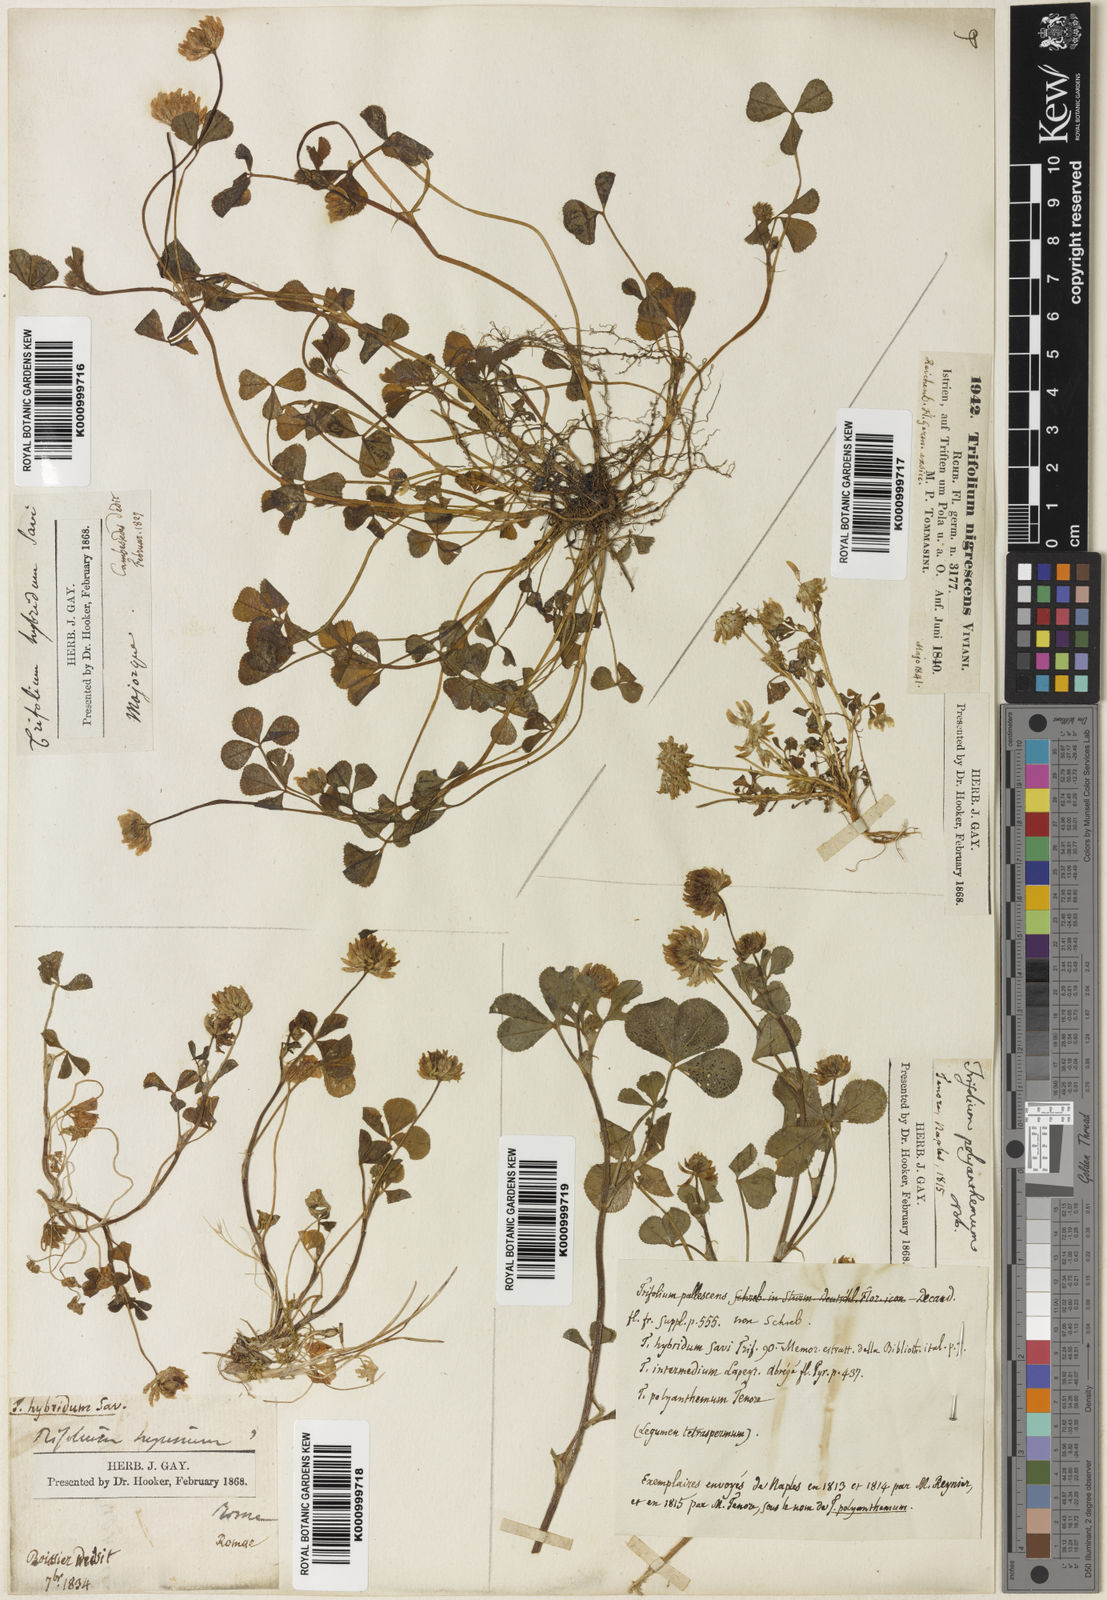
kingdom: Plantae
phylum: Tracheophyta
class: Magnoliopsida
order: Fabales
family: Fabaceae
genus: Trifolium
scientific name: Trifolium
